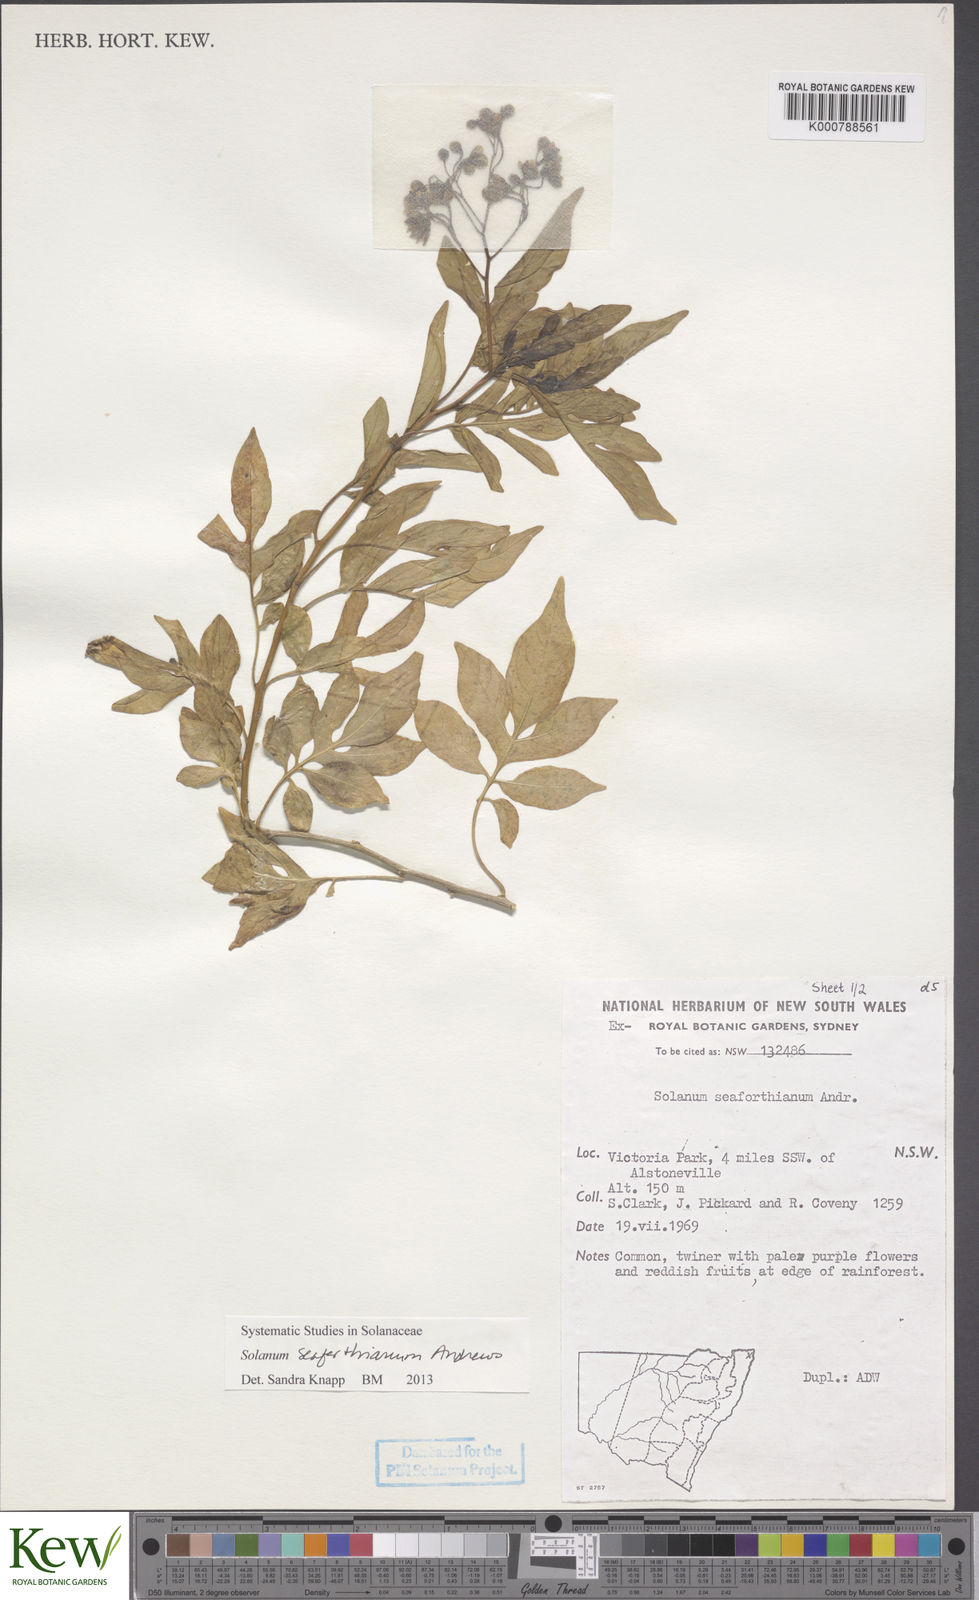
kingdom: Plantae
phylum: Tracheophyta
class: Magnoliopsida
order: Solanales
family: Solanaceae
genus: Solanum
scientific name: Solanum seaforthianum
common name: Brazilian nightshade
